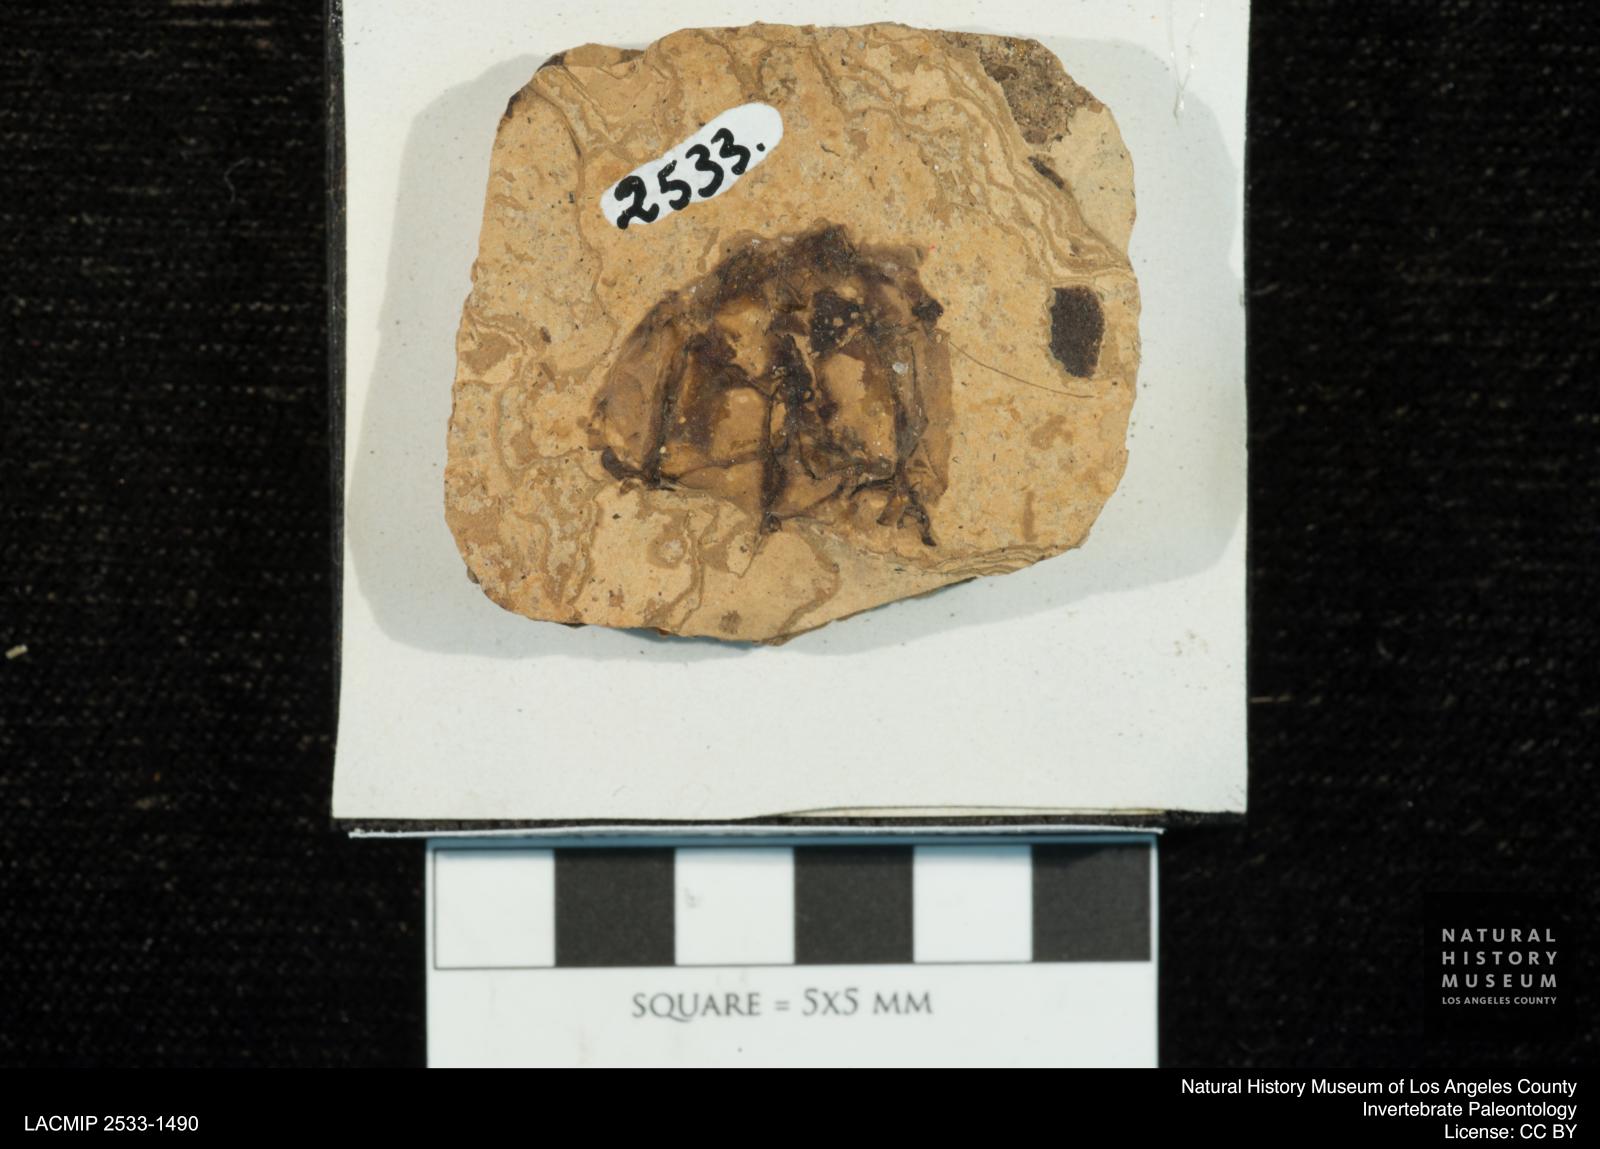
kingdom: Animalia
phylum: Arthropoda
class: Insecta
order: Odonata
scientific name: Odonata
